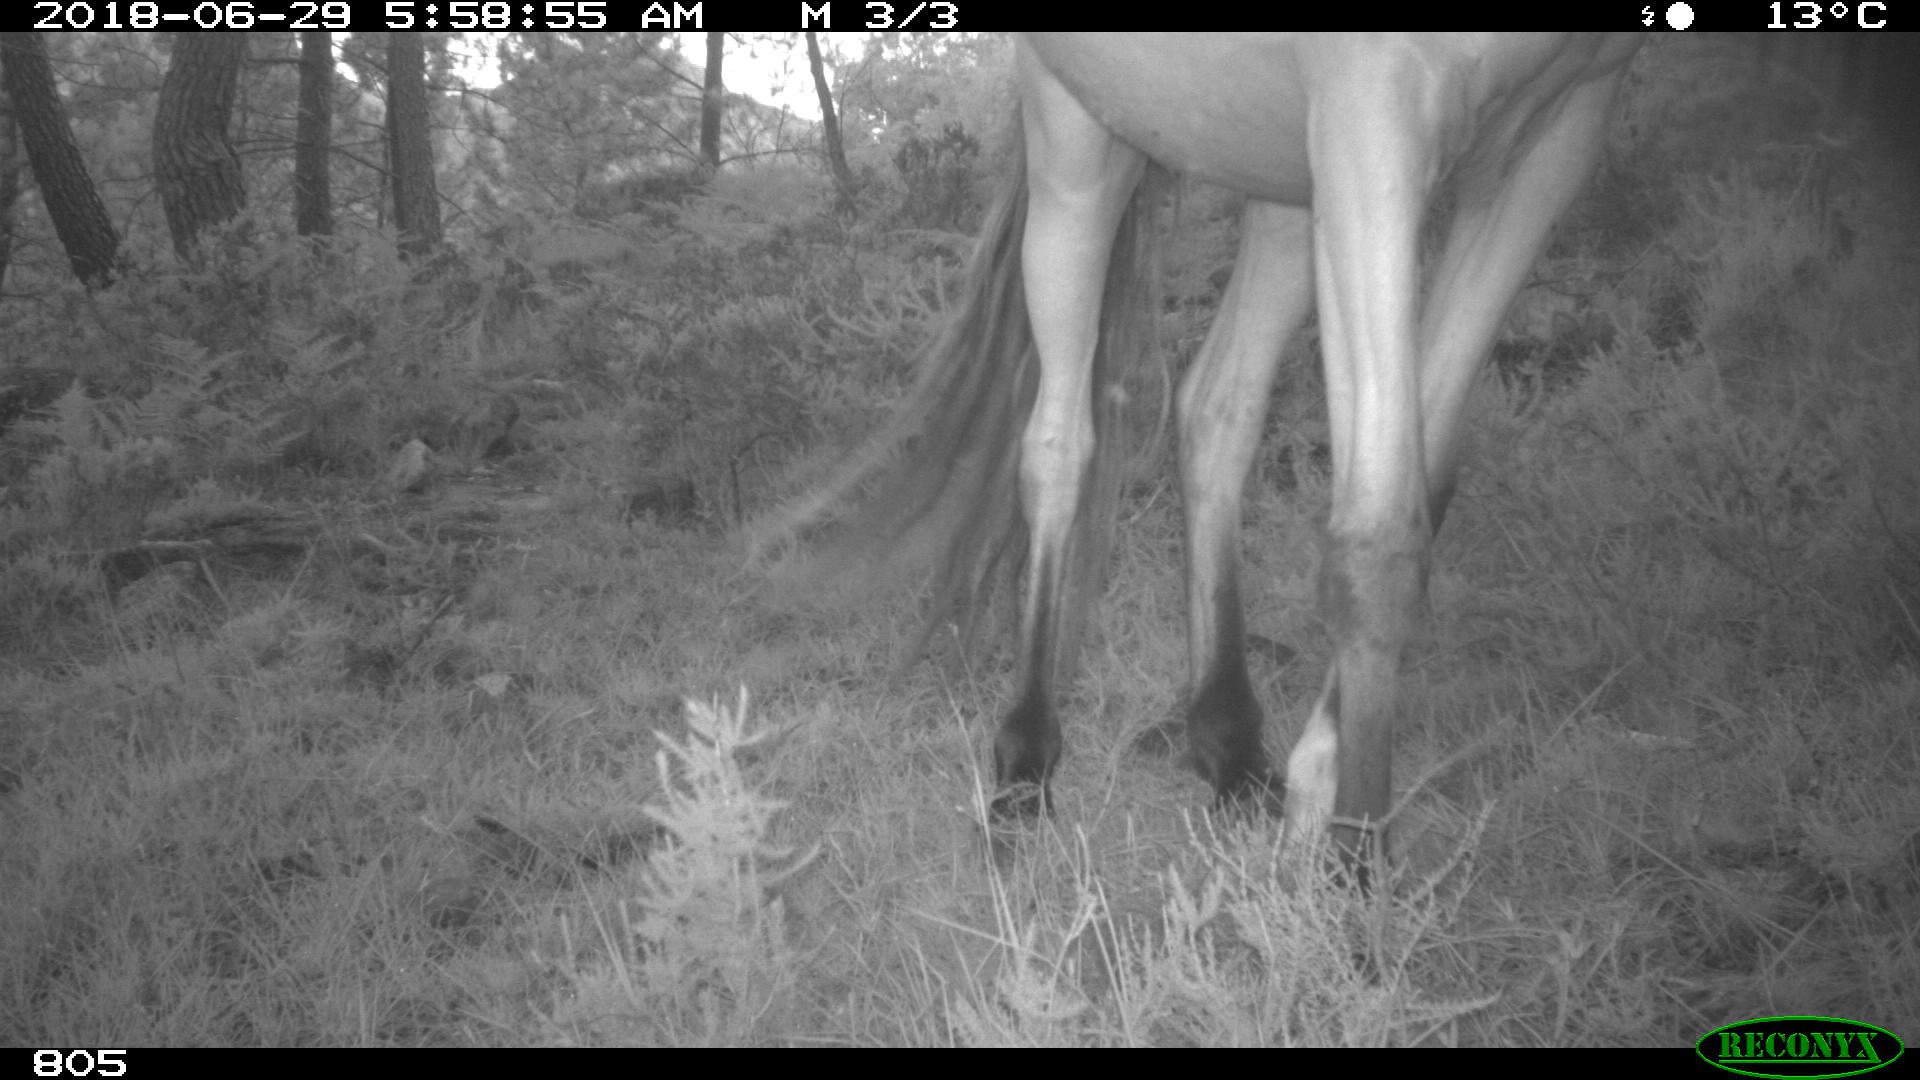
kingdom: Animalia
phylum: Chordata
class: Mammalia
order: Perissodactyla
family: Equidae
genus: Equus
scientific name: Equus caballus
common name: Horse
